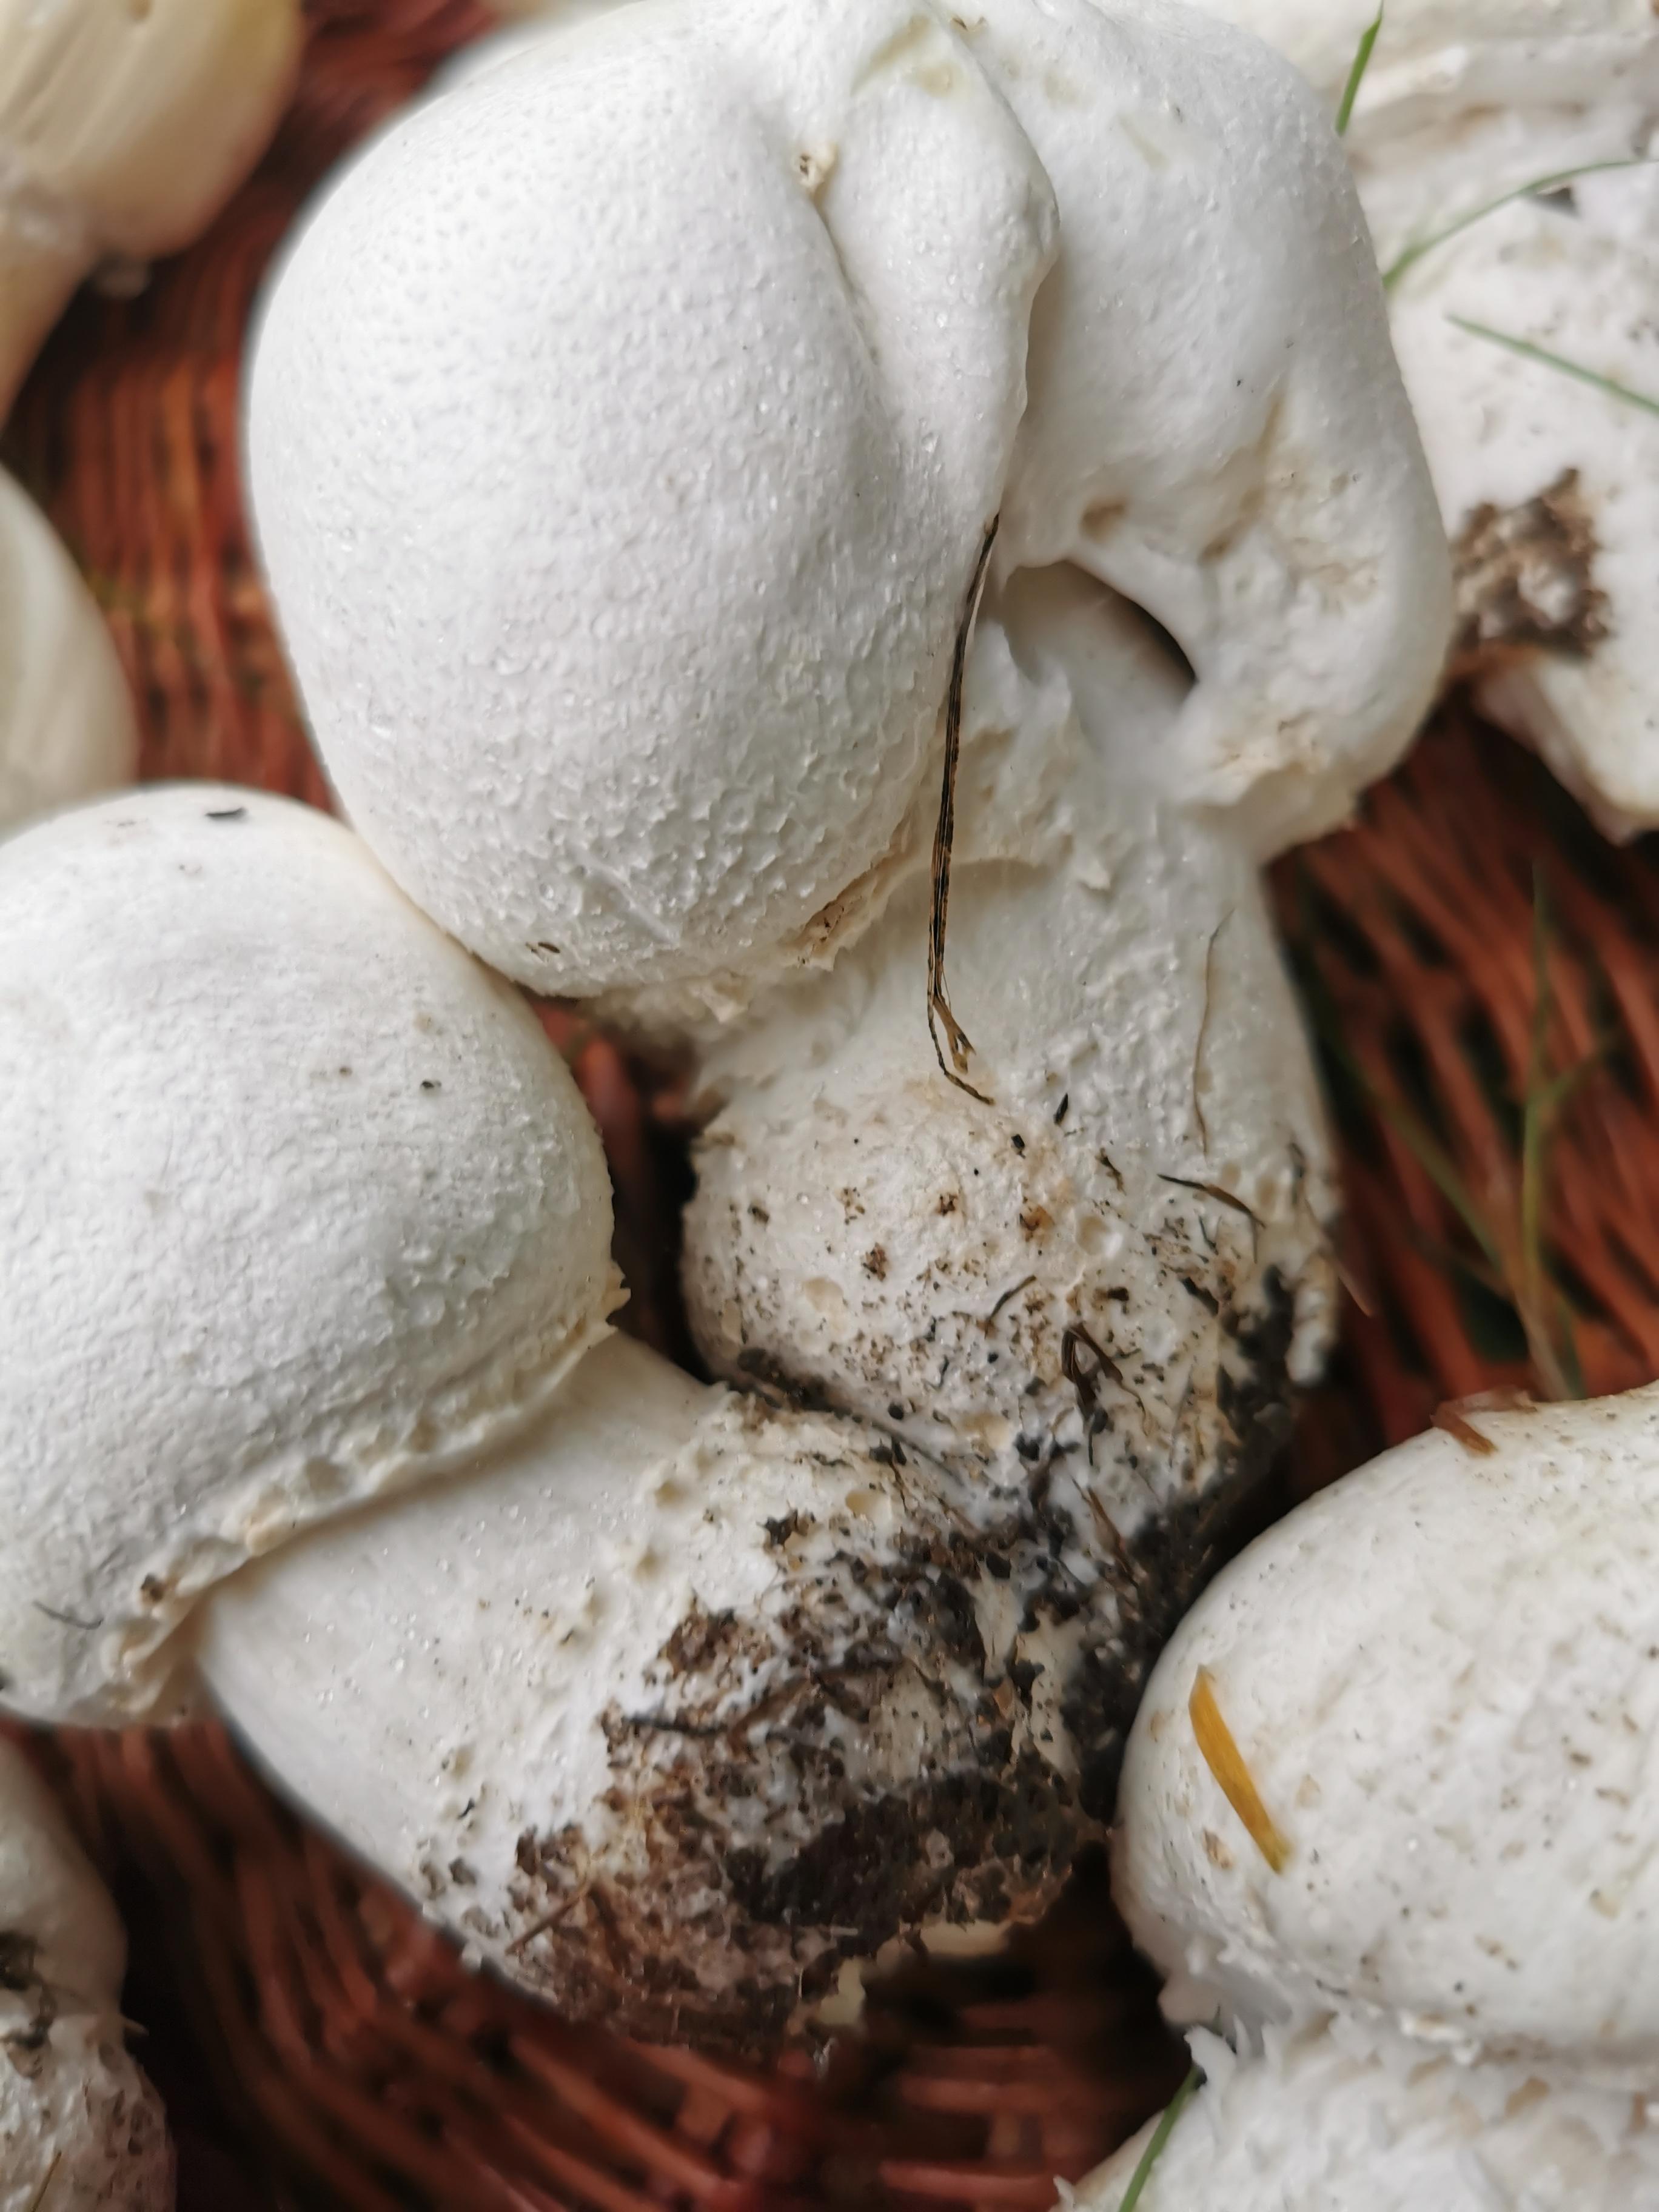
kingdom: Fungi
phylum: Basidiomycota
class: Agaricomycetes
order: Agaricales
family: Agaricaceae
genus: Agaricus
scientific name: Agaricus
